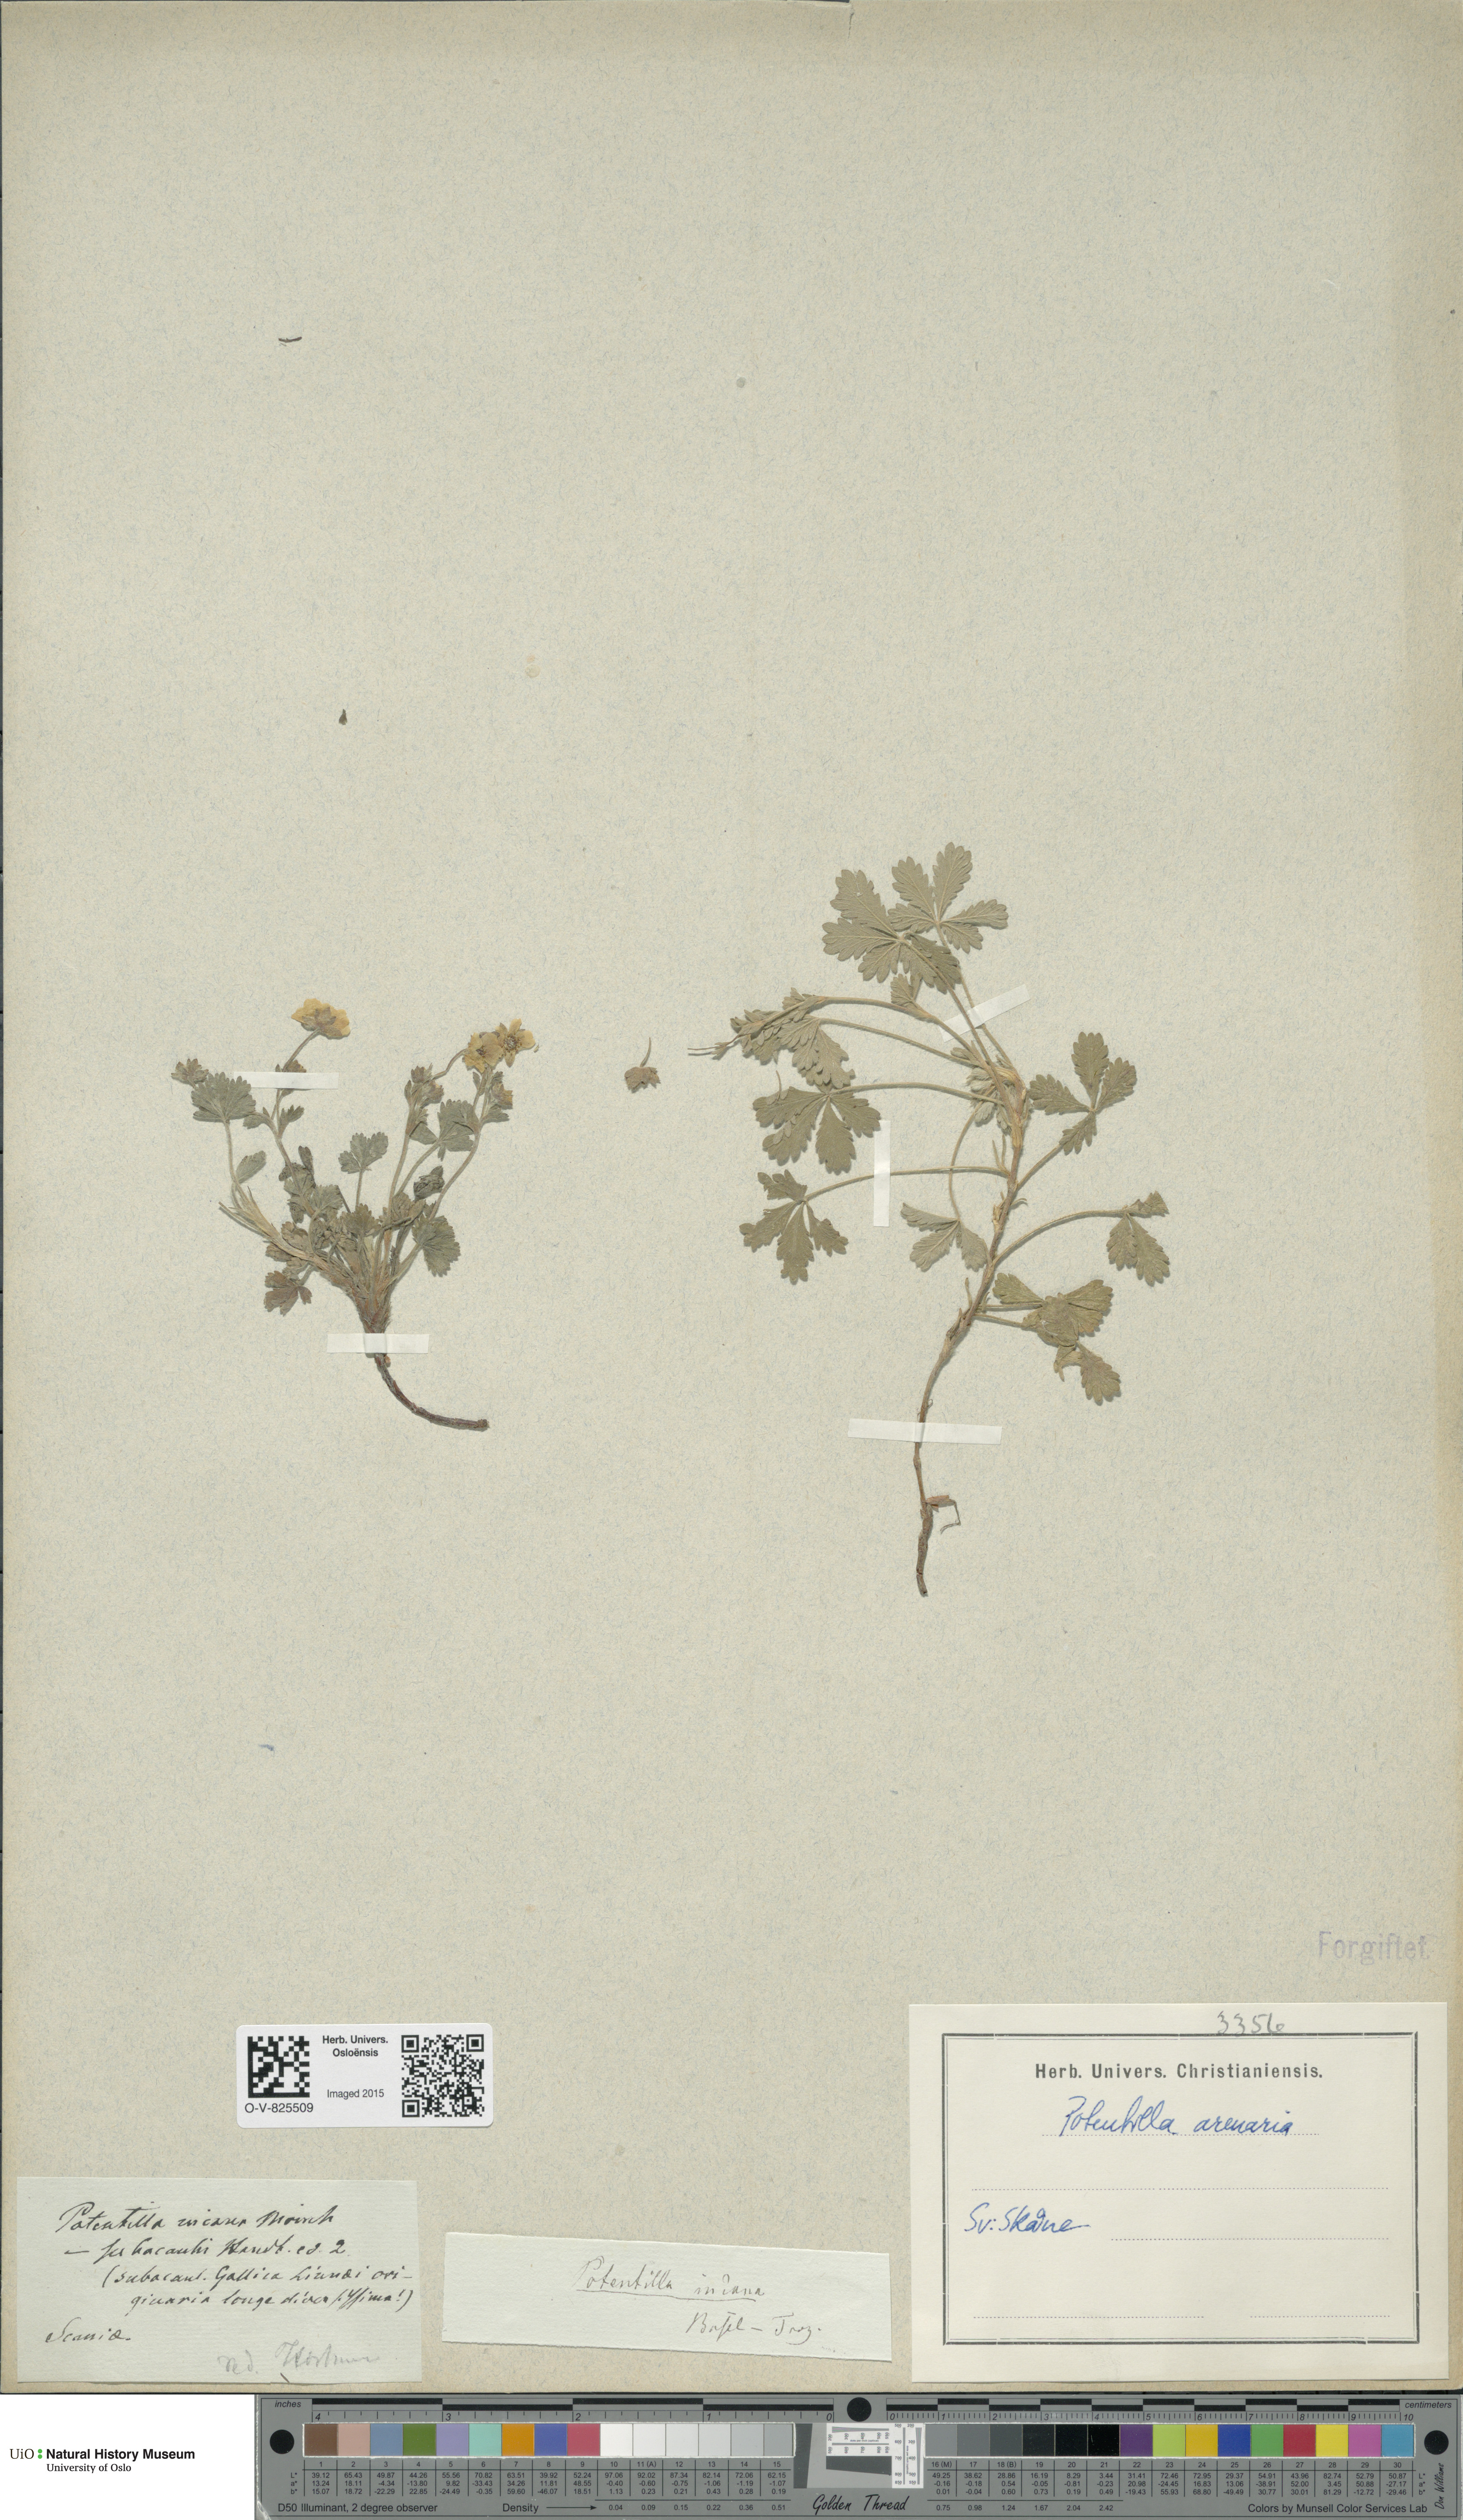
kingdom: Plantae
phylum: Tracheophyta
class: Magnoliopsida
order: Rosales
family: Rosaceae
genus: Potentilla
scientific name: Potentilla cinerea
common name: Ashy cinquefoil
